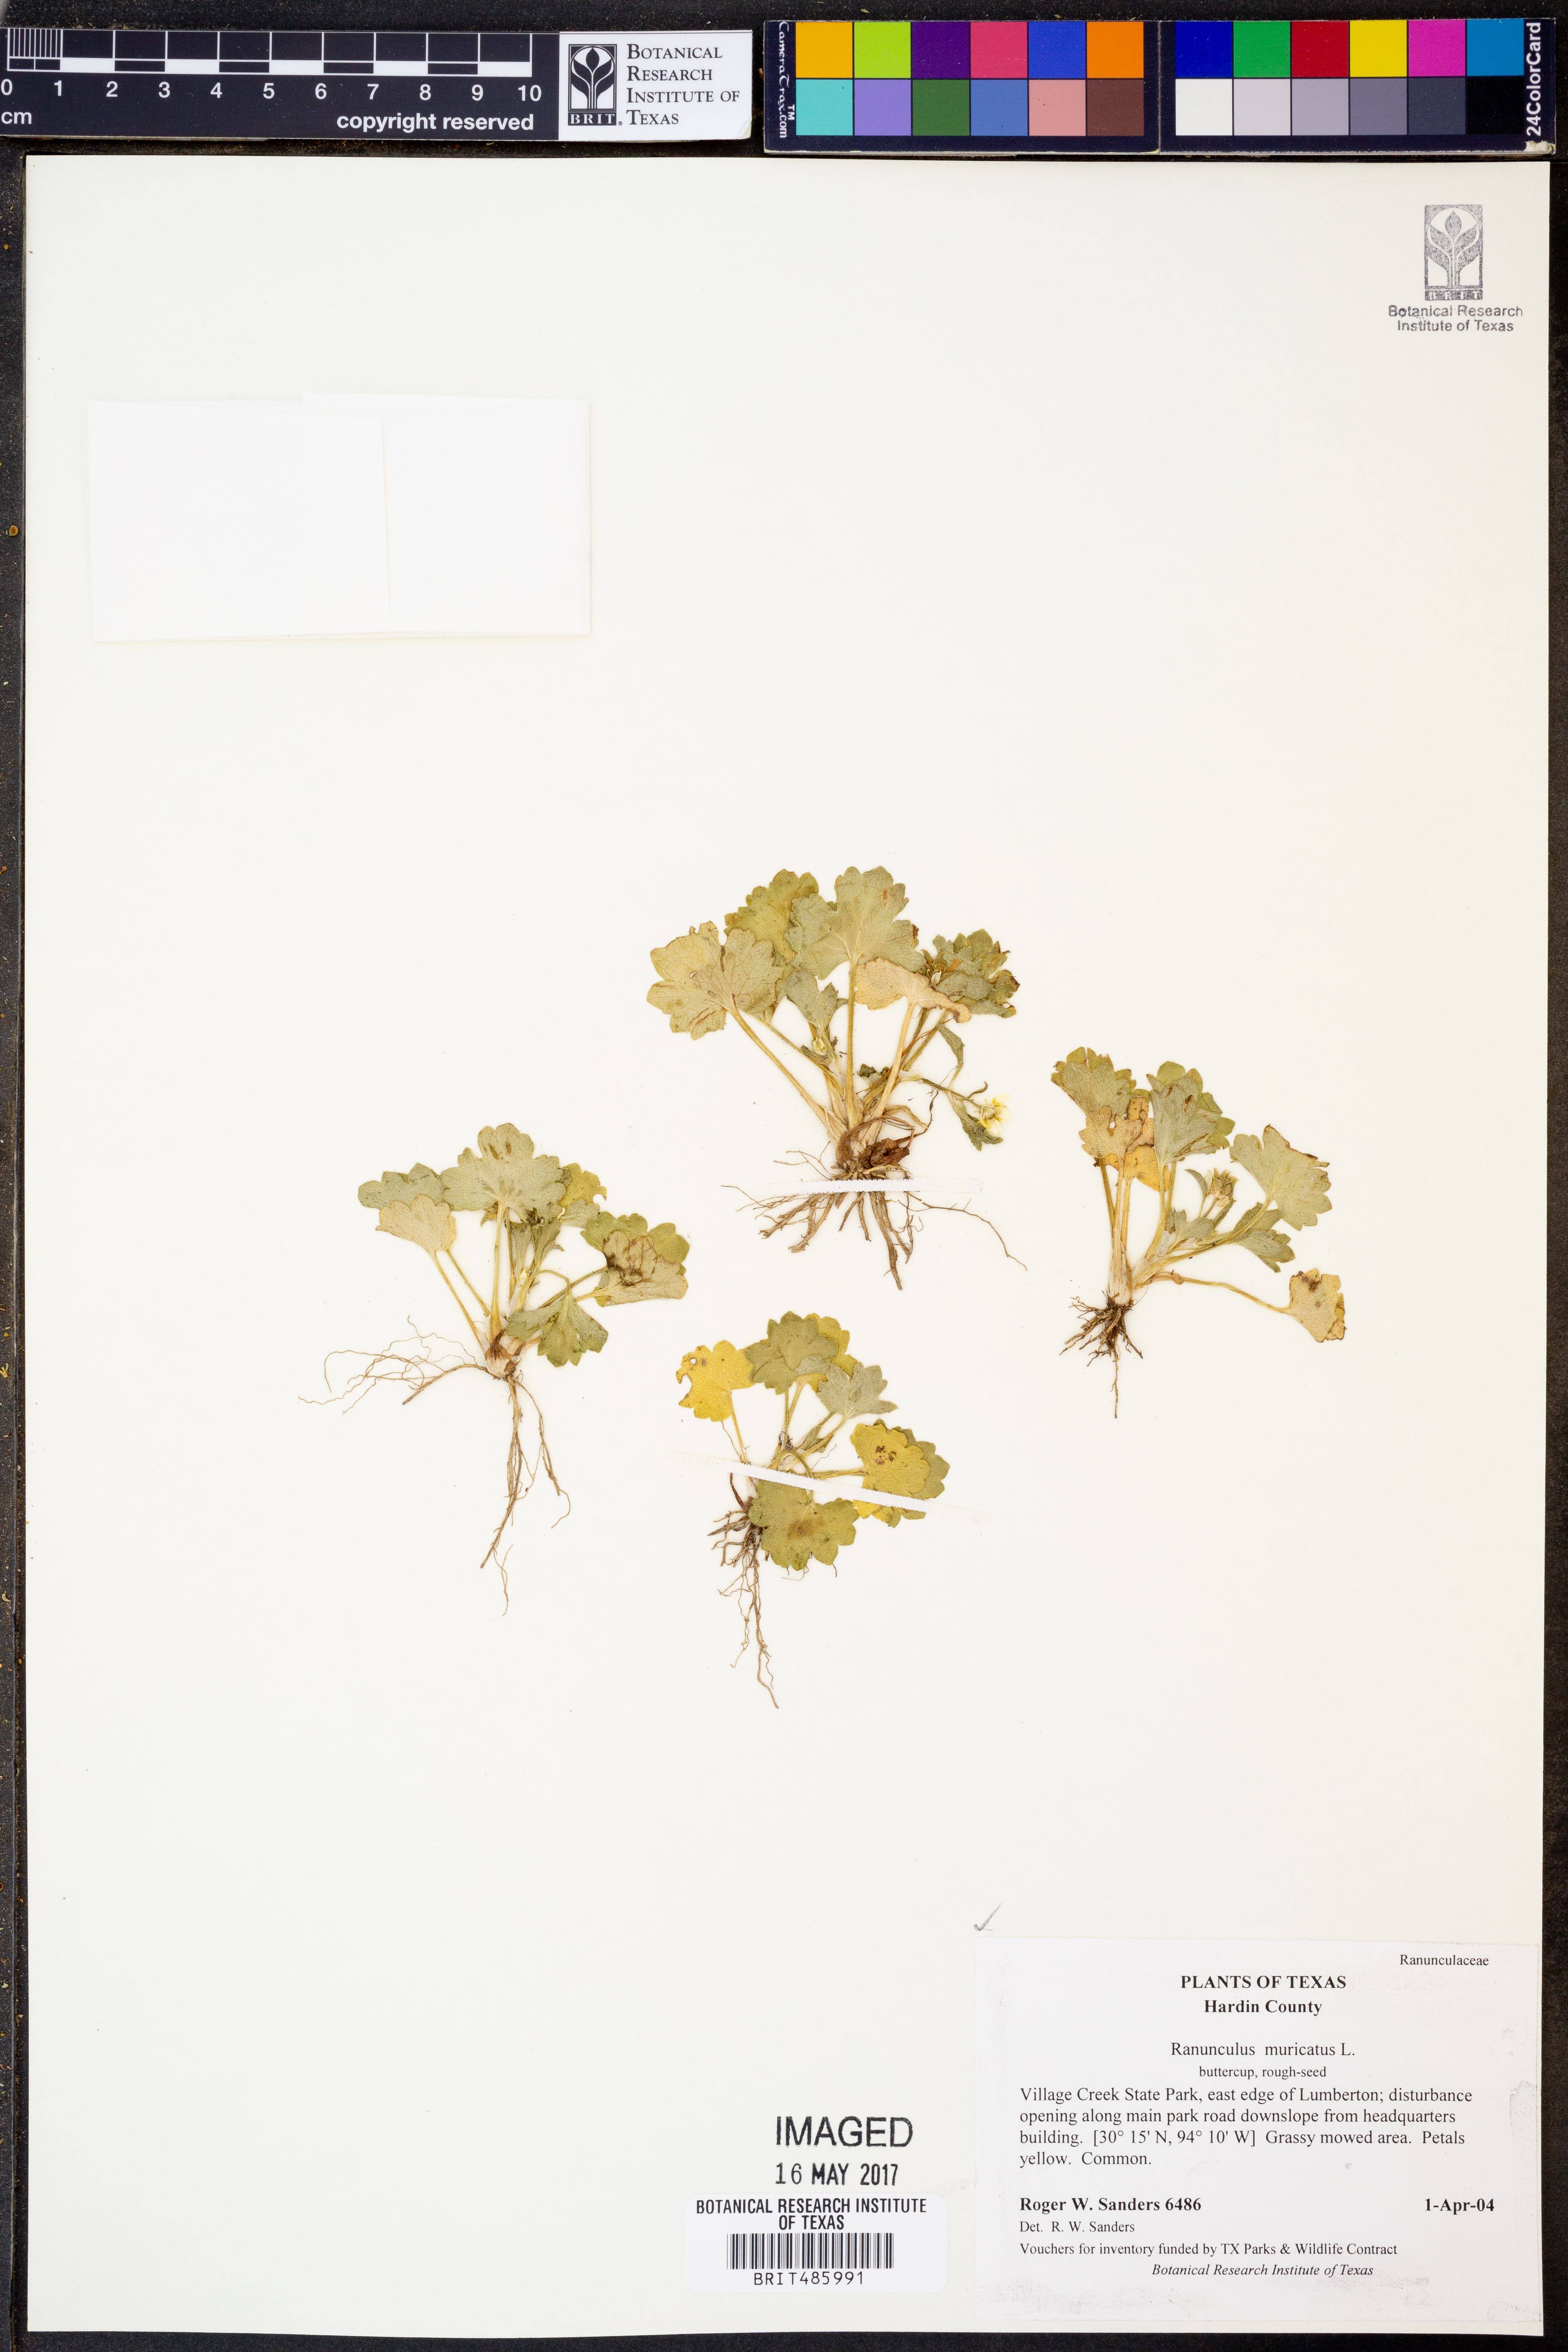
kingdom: Plantae
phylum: Tracheophyta
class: Magnoliopsida
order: Ranunculales
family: Ranunculaceae
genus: Ranunculus
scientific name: Ranunculus muricatus
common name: Rough-fruited buttercup
